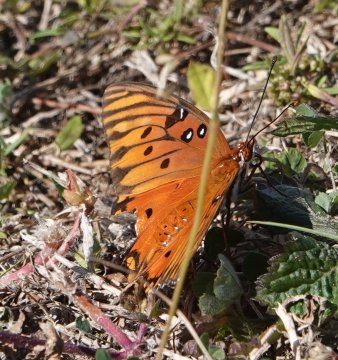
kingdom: Animalia
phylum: Arthropoda
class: Insecta
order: Lepidoptera
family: Nymphalidae
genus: Dione
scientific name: Dione vanillae
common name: Gulf Fritillary
